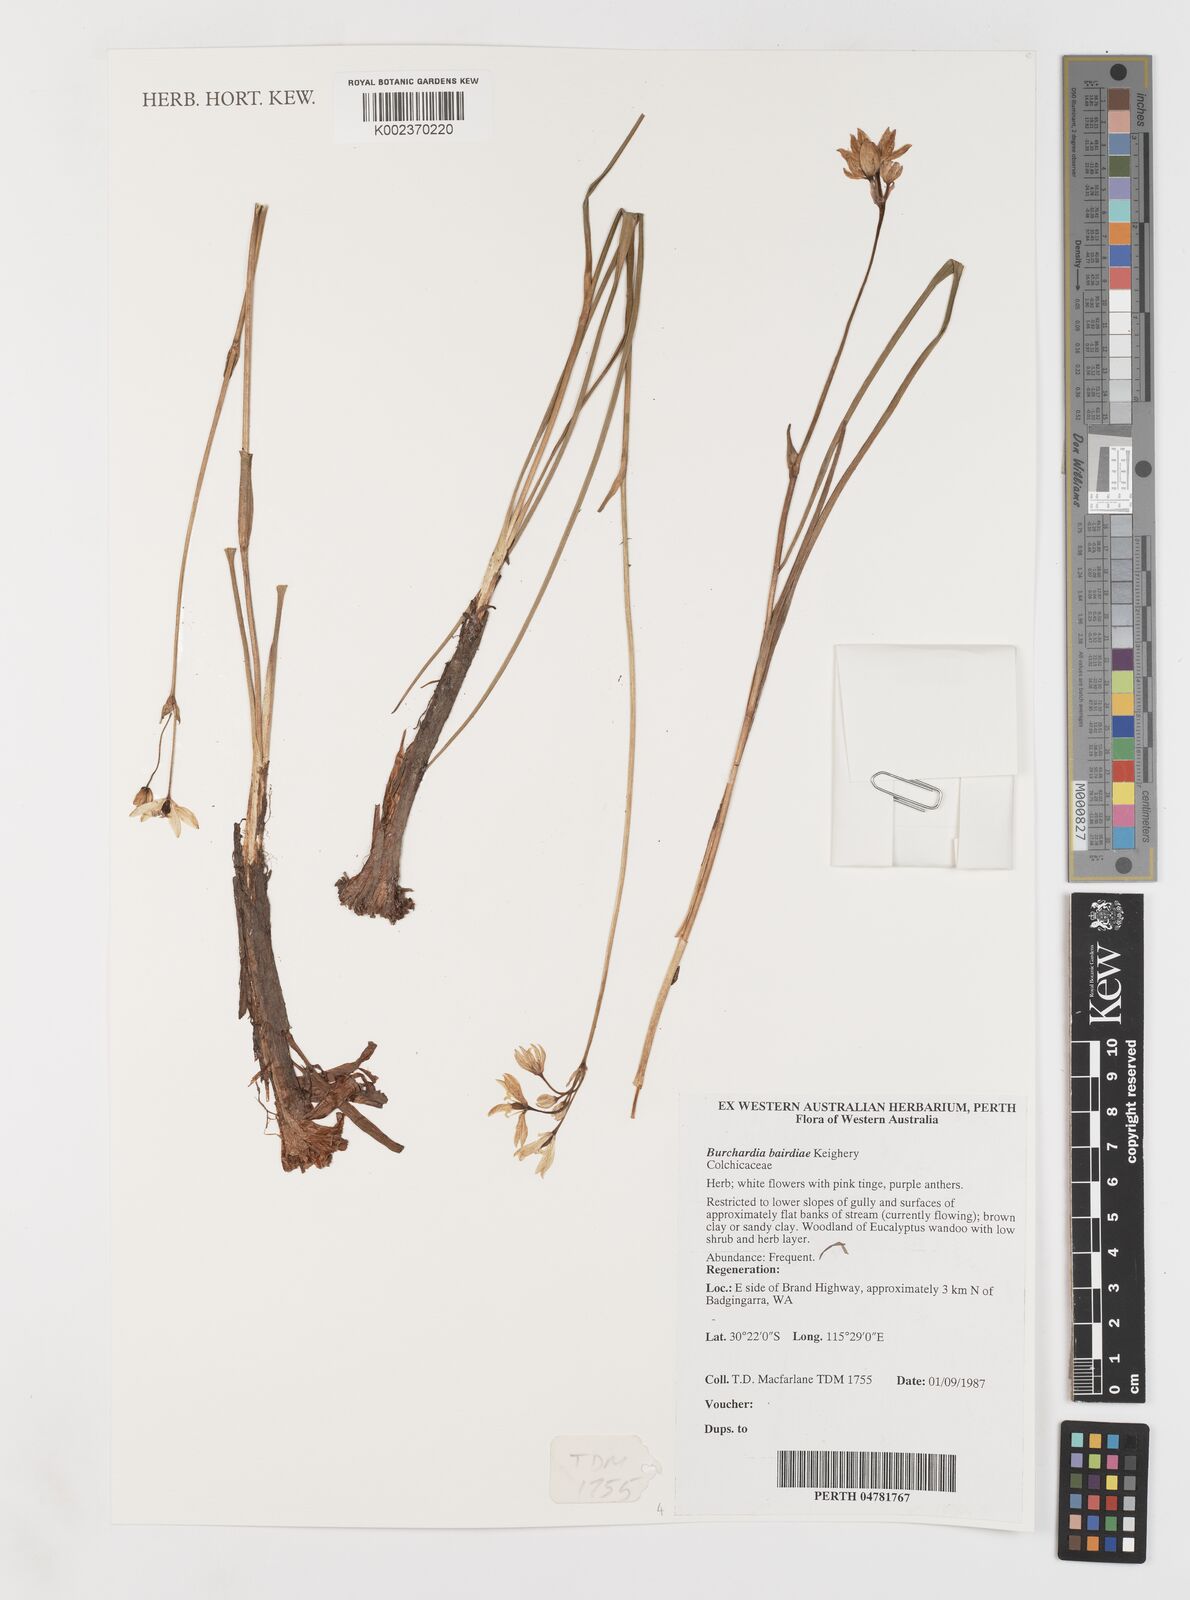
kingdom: Plantae
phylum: Tracheophyta
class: Liliopsida
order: Liliales
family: Colchicaceae
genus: Burchardia
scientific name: Burchardia bairdiae
